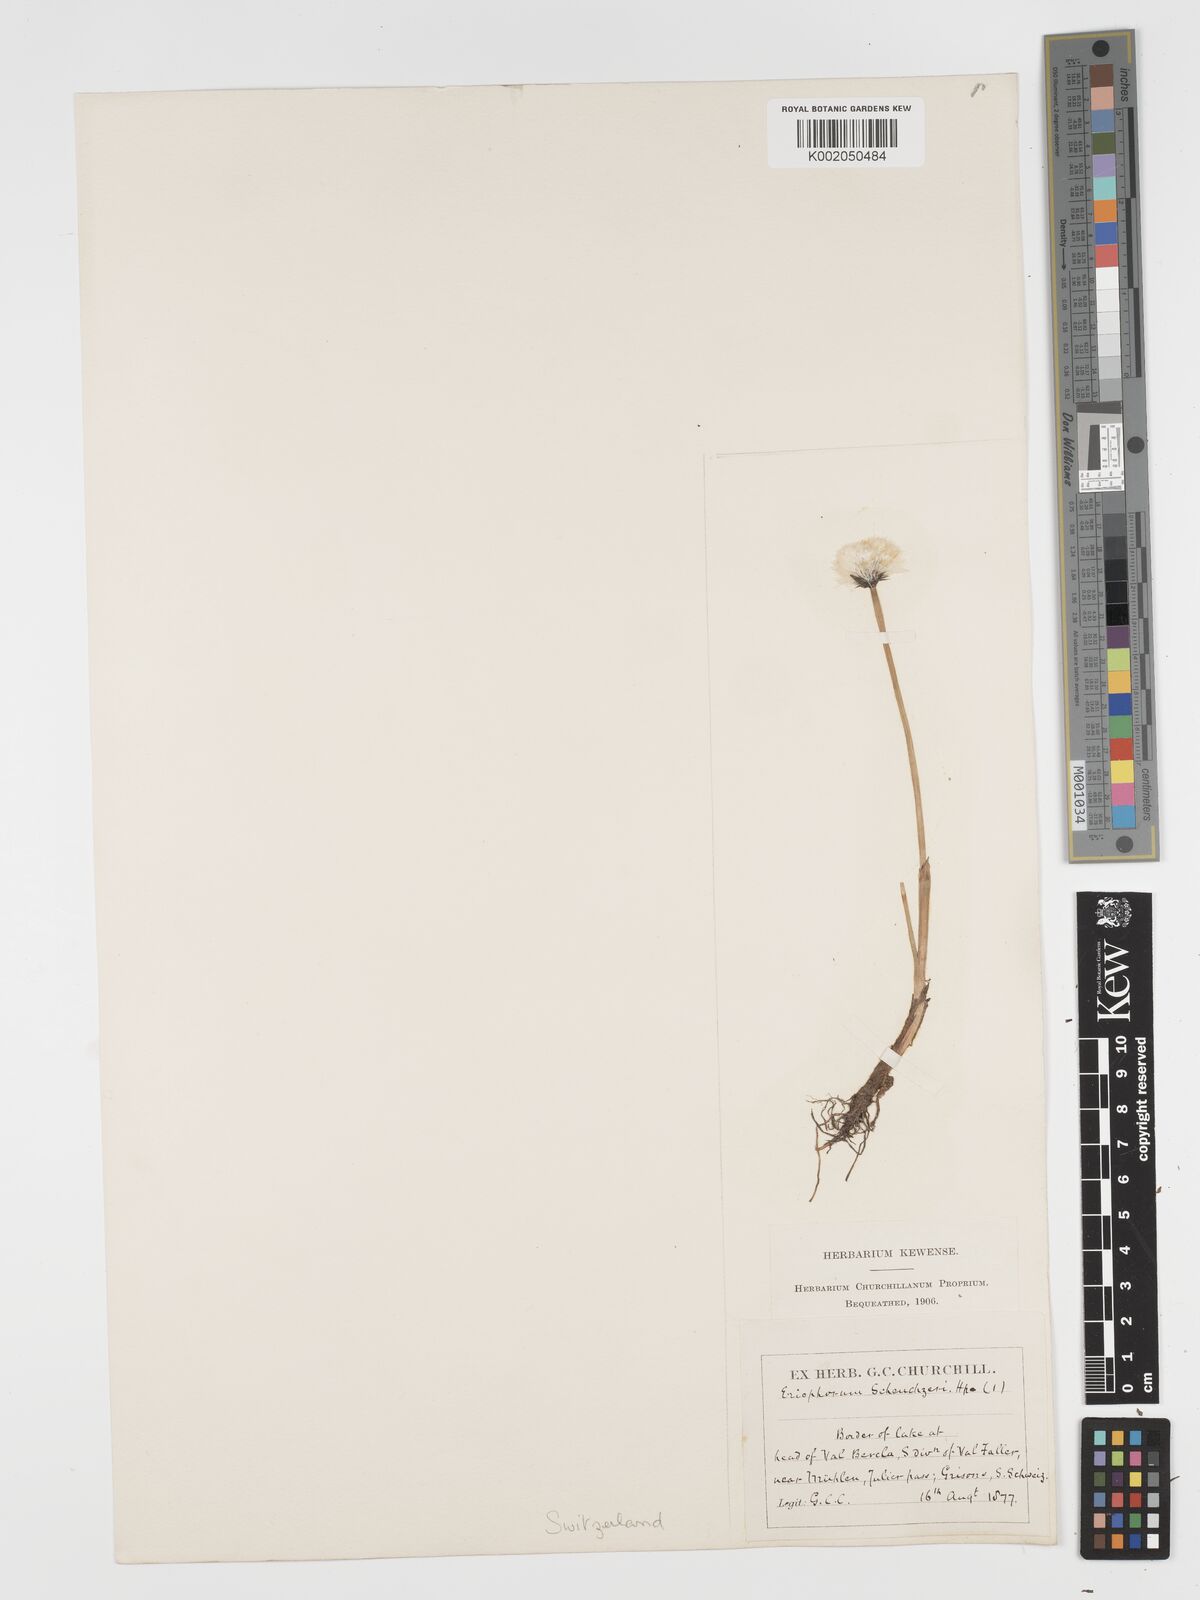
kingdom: Plantae
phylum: Tracheophyta
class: Liliopsida
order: Poales
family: Cyperaceae
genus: Eriophorum
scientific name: Eriophorum scheuchzeri
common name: Scheuchzer's cottongrass
